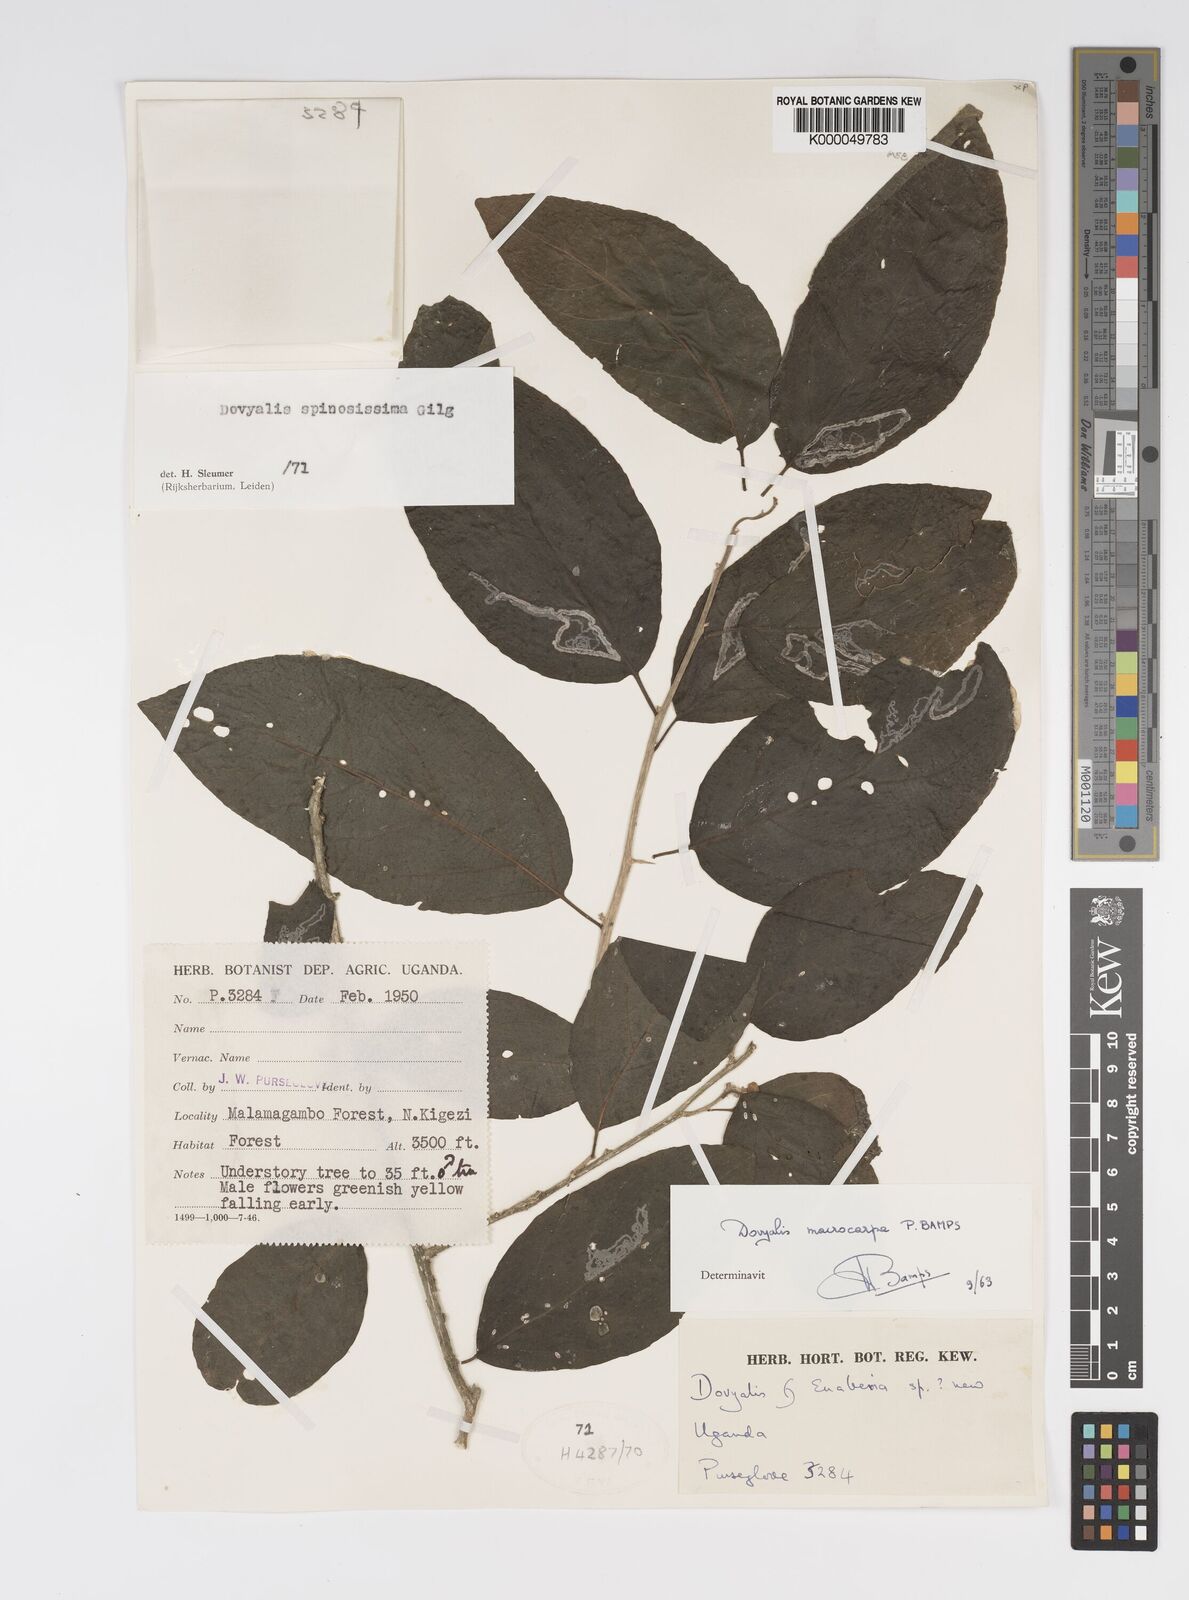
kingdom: Plantae
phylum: Tracheophyta
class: Magnoliopsida
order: Malpighiales
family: Salicaceae
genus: Dovyalis
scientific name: Dovyalis spinosissima
